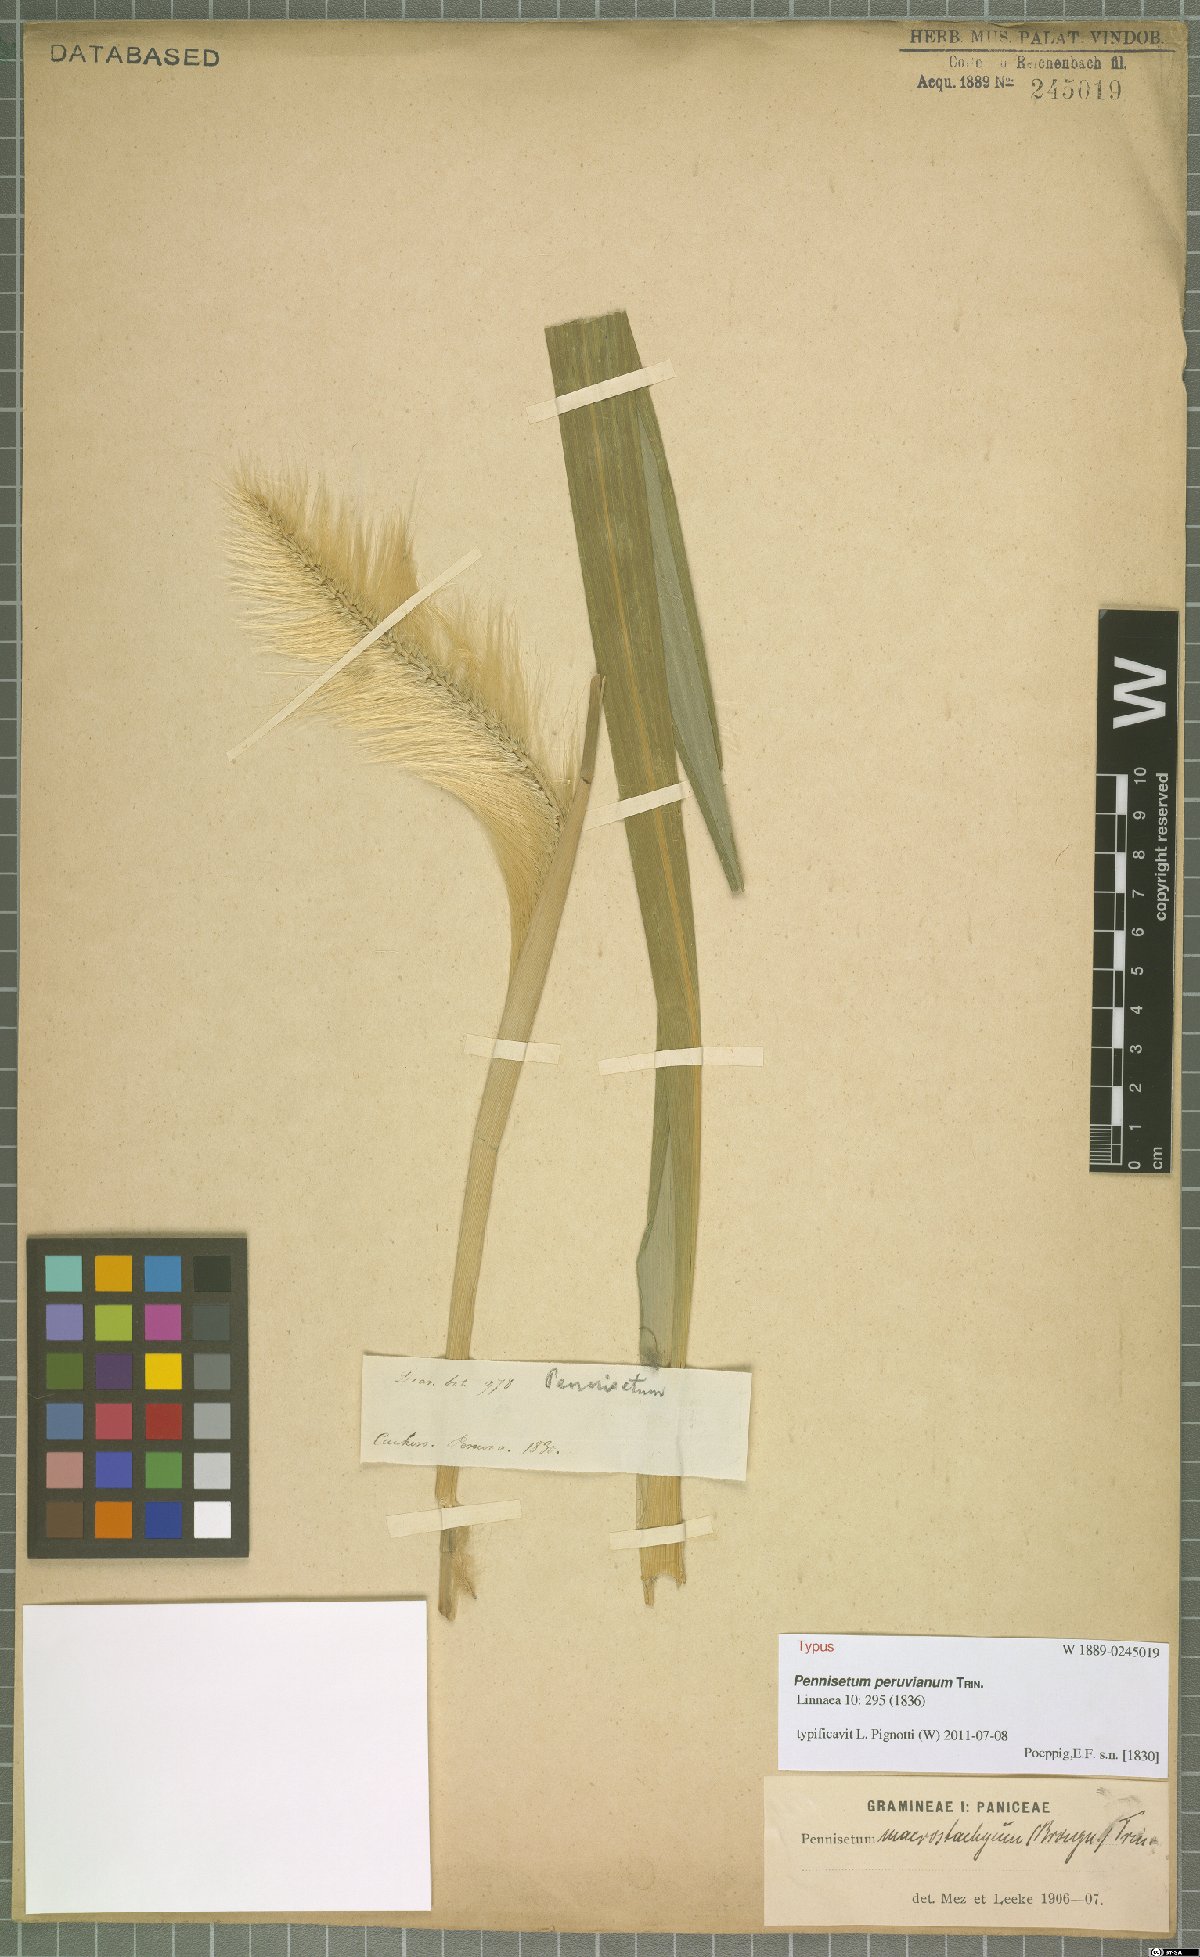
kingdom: Plantae
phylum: Tracheophyta
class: Liliopsida
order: Poales
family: Poaceae
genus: Cenchrus
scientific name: Cenchrus peruvianus
